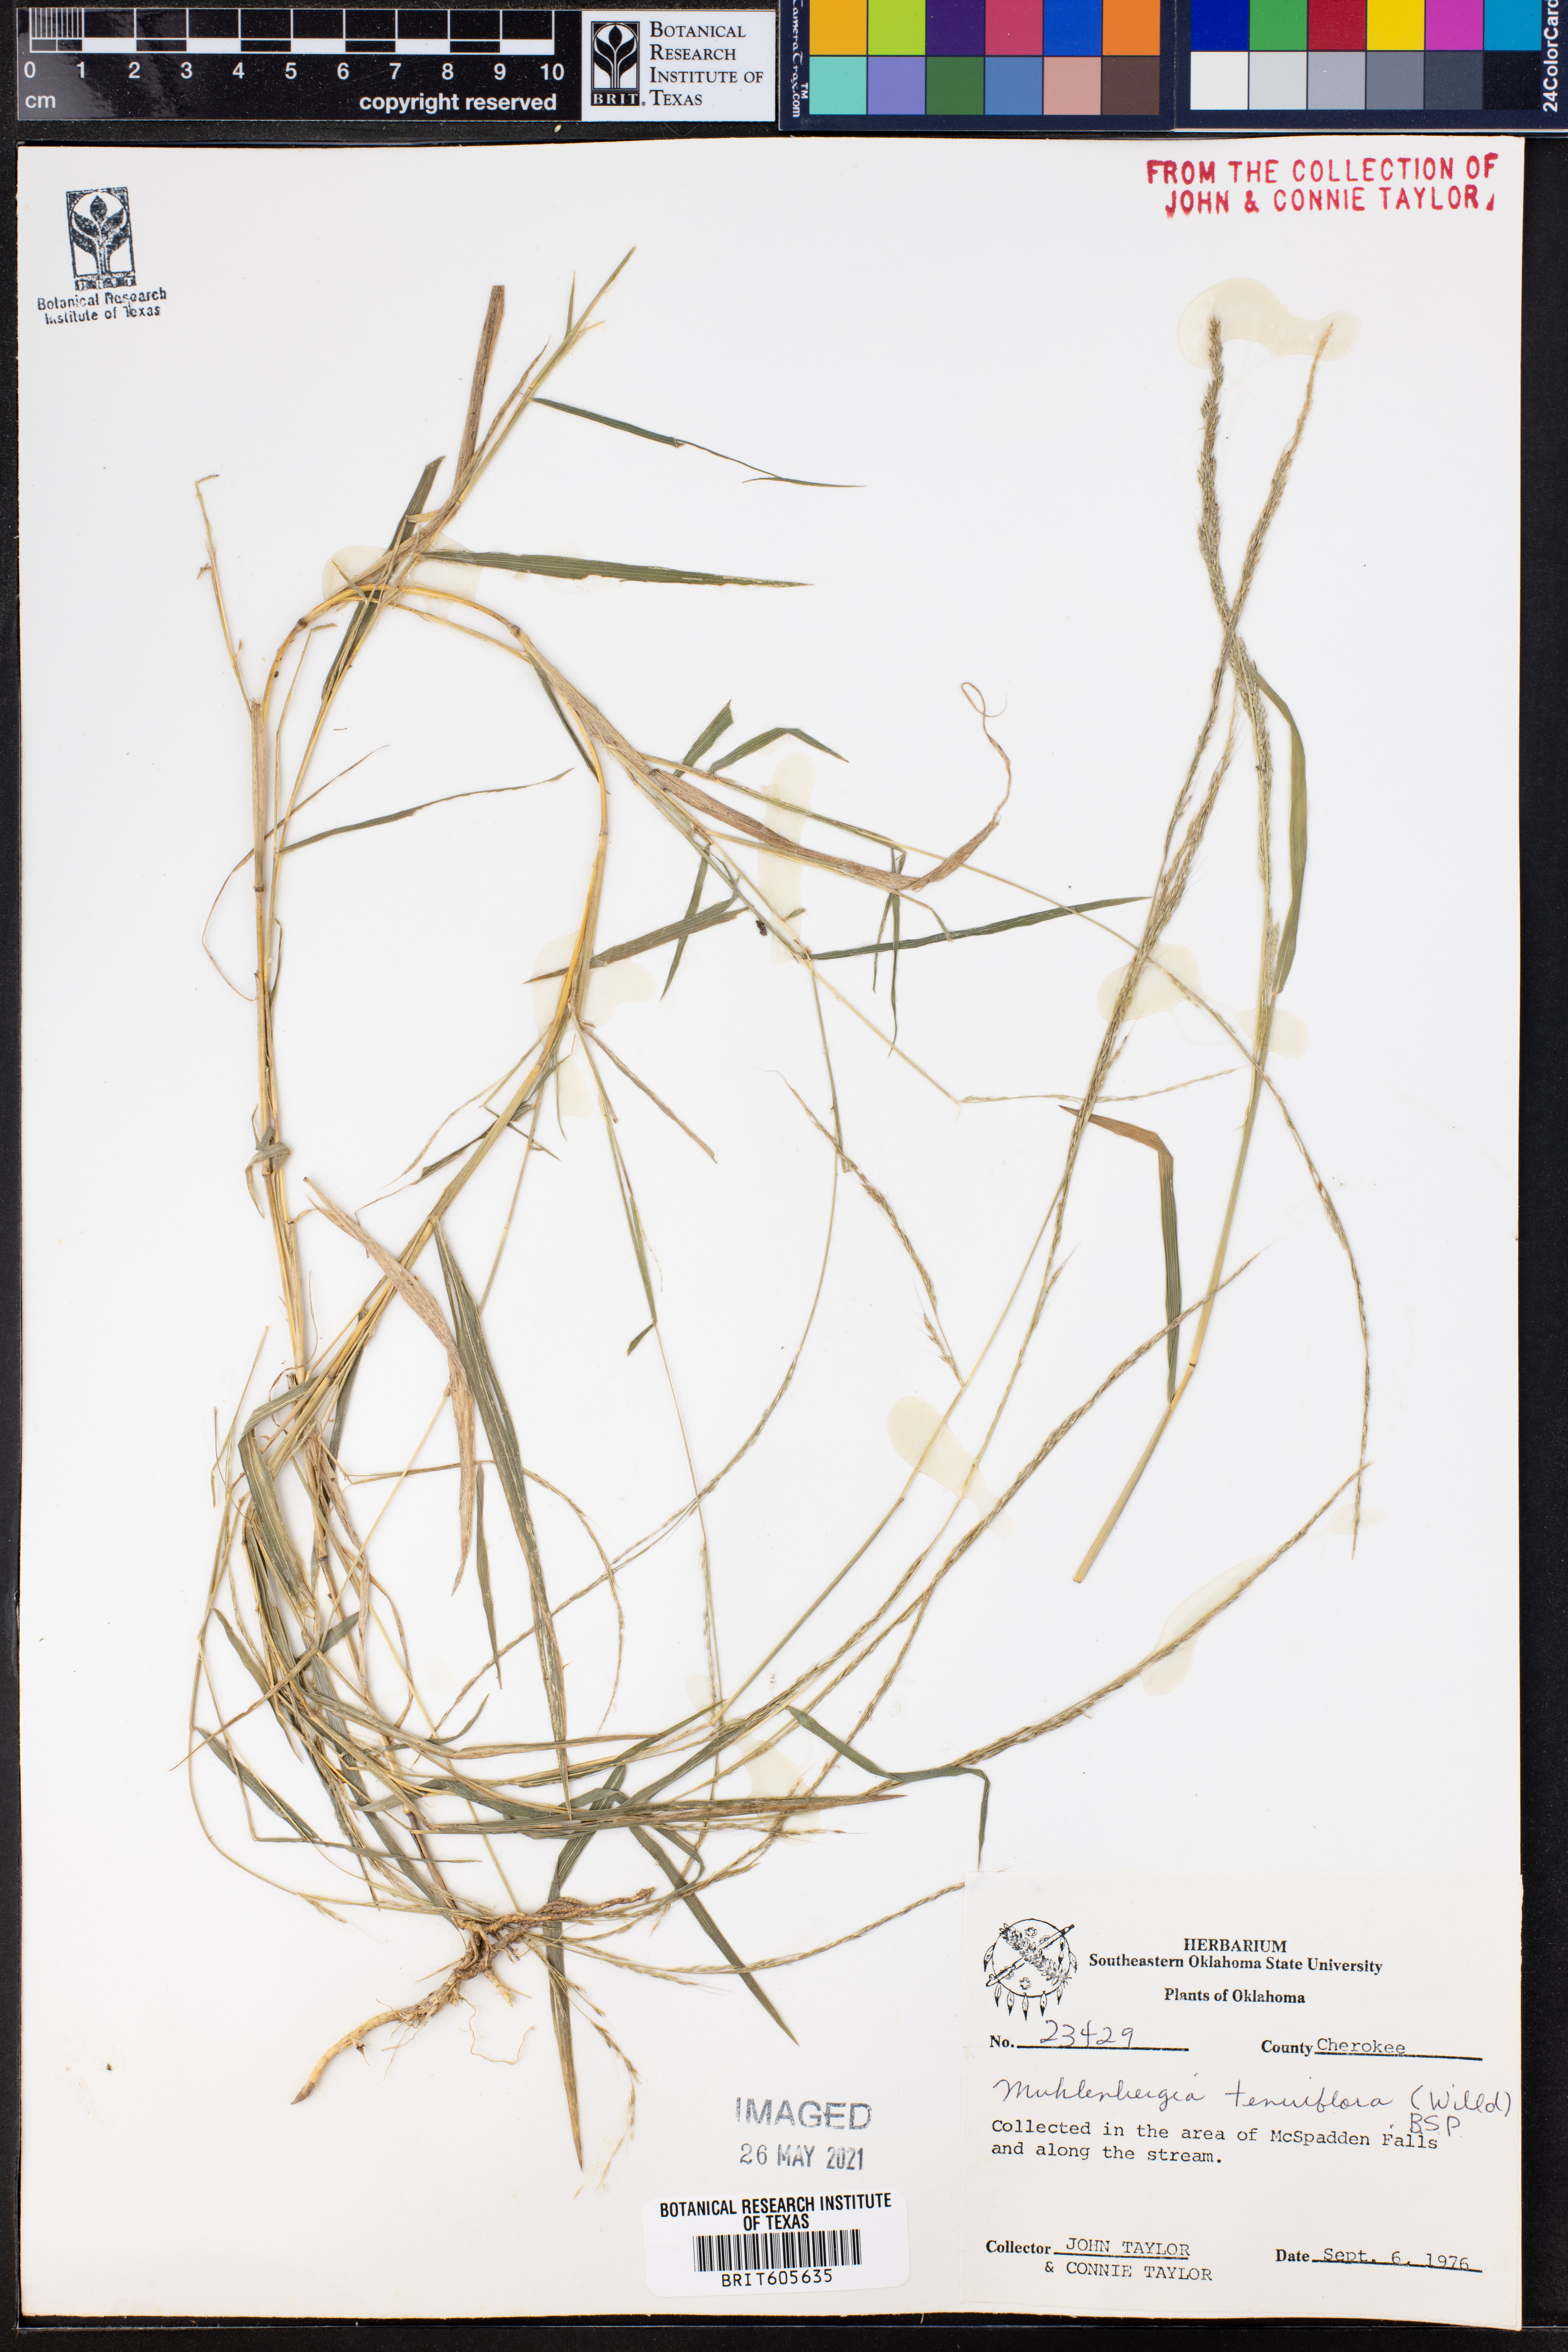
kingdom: Plantae
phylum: Tracheophyta
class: Liliopsida
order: Poales
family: Poaceae
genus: Muhlenbergia
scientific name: Muhlenbergia tenuiflora
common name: Slender muhly
